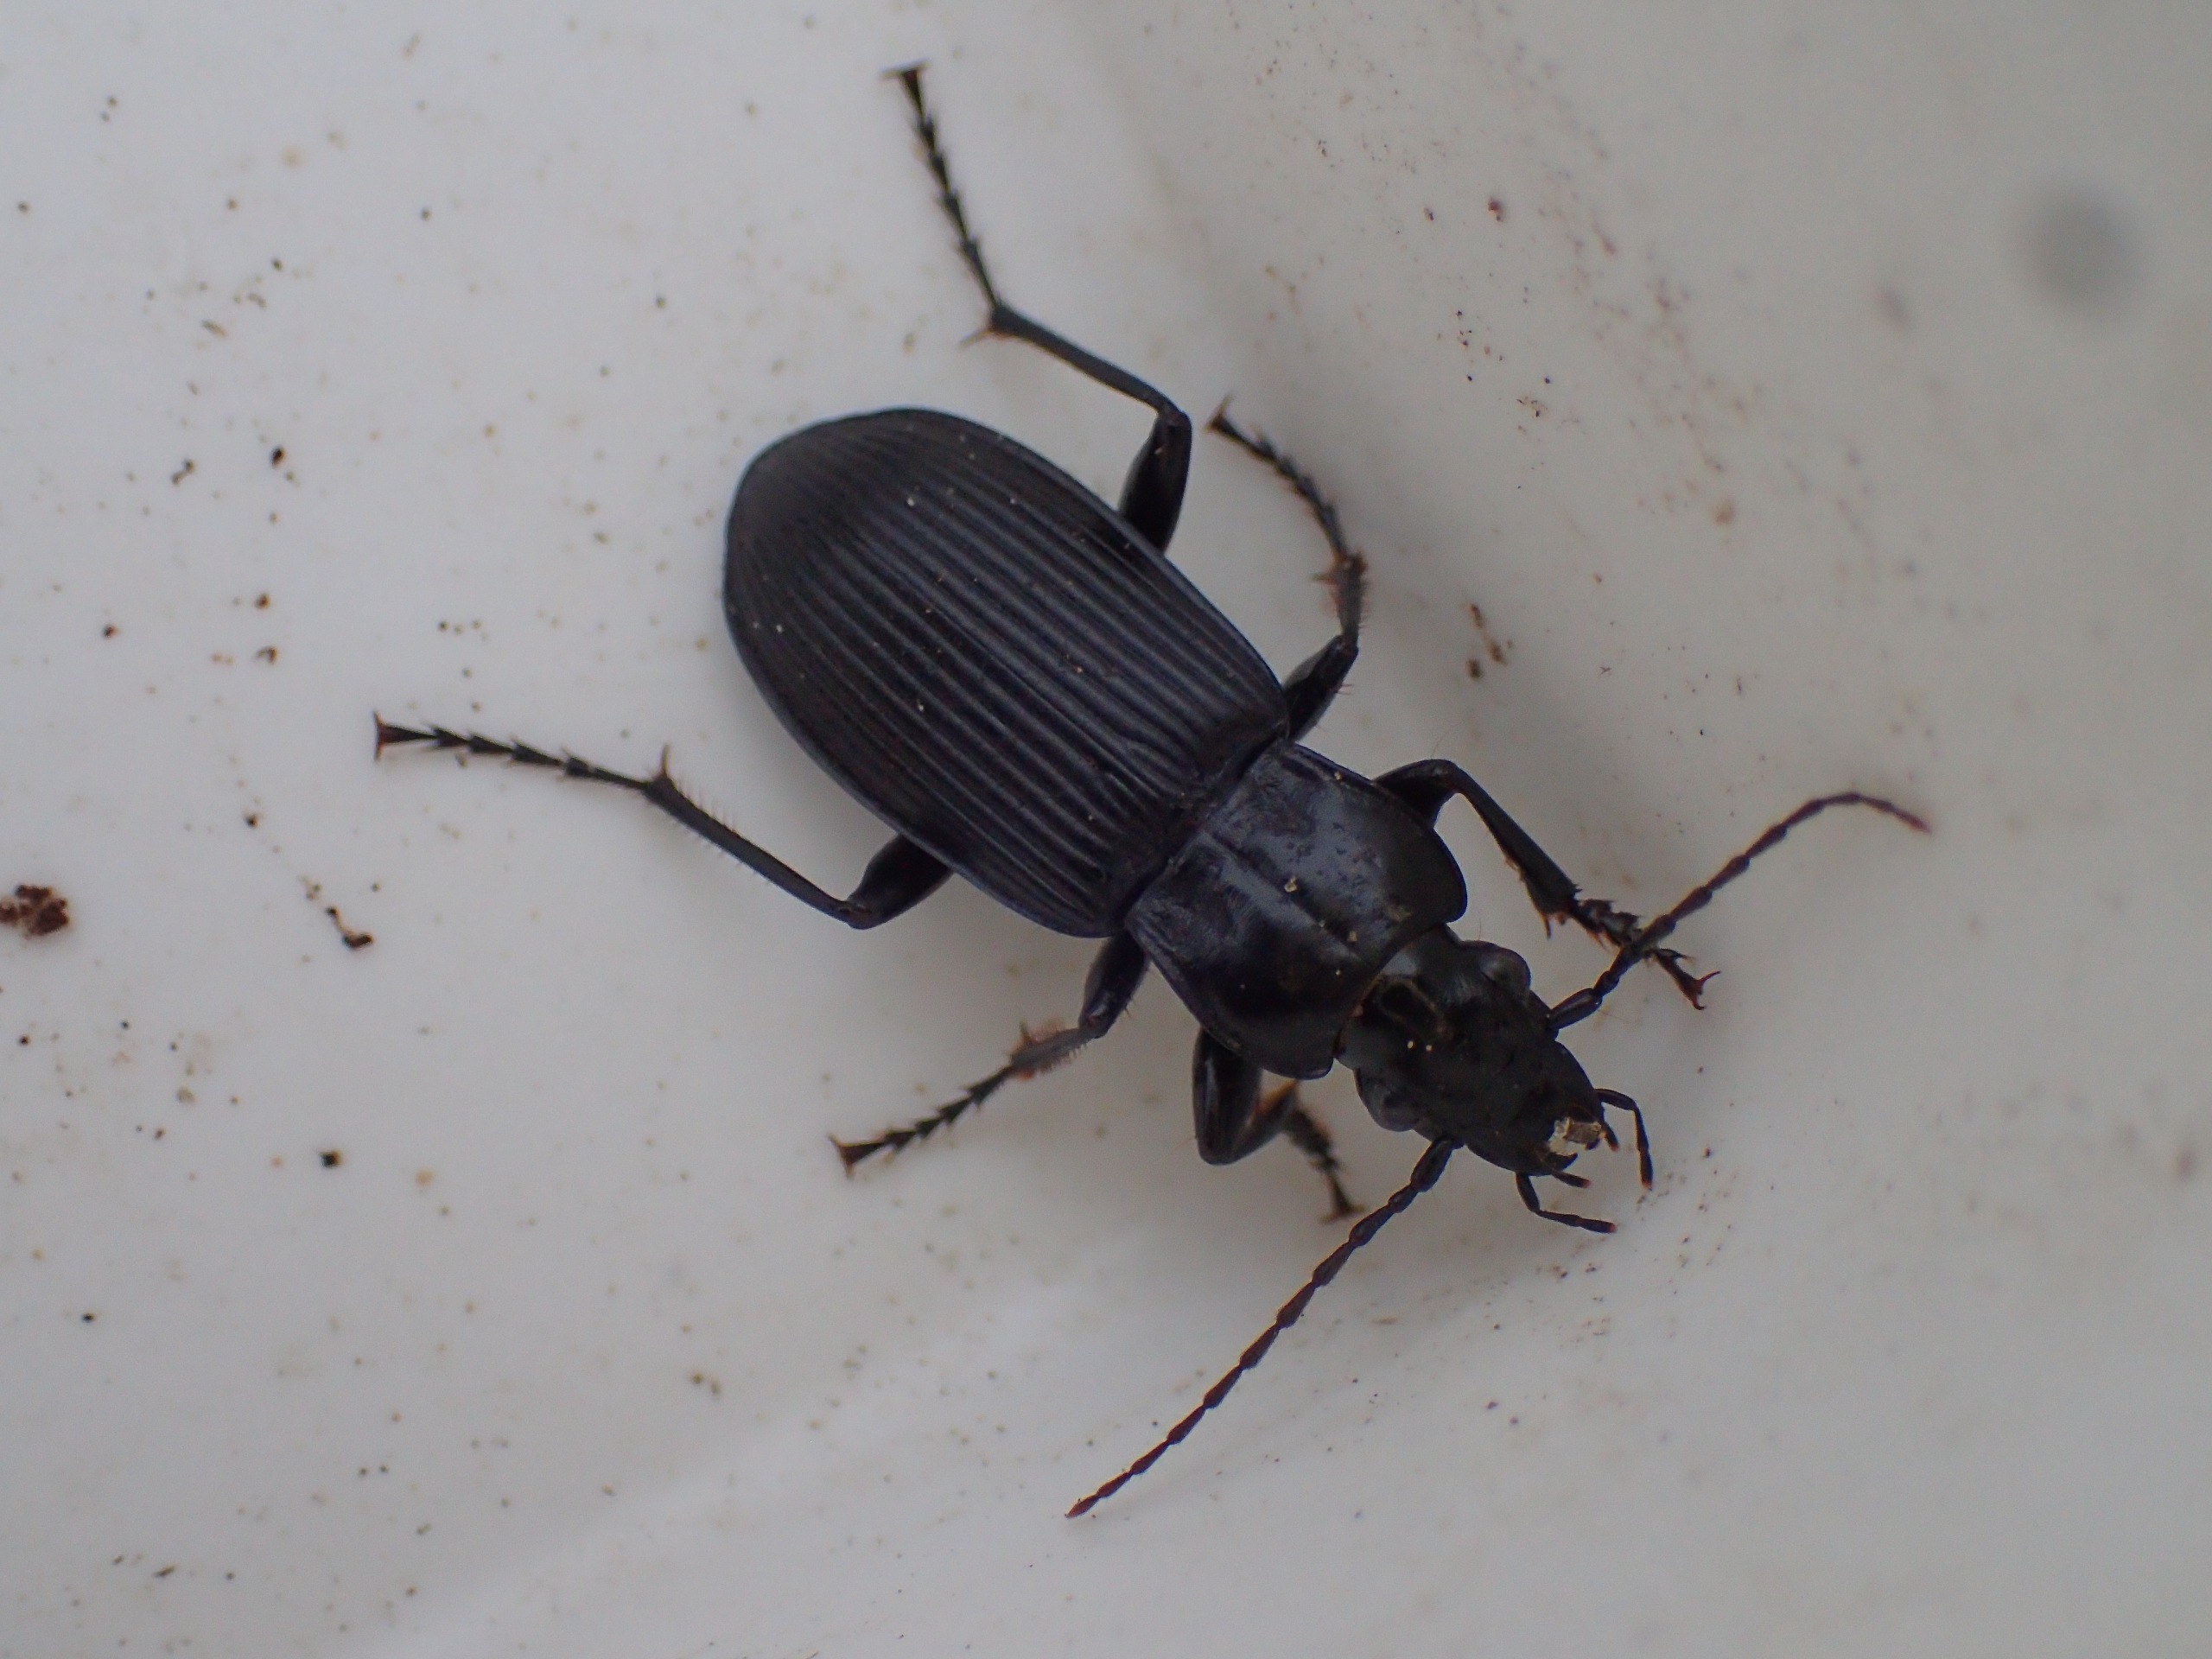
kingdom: Animalia
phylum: Arthropoda
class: Insecta
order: Coleoptera
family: Carabidae
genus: Pterostichus
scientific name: Pterostichus niger
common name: Skovjordløber
